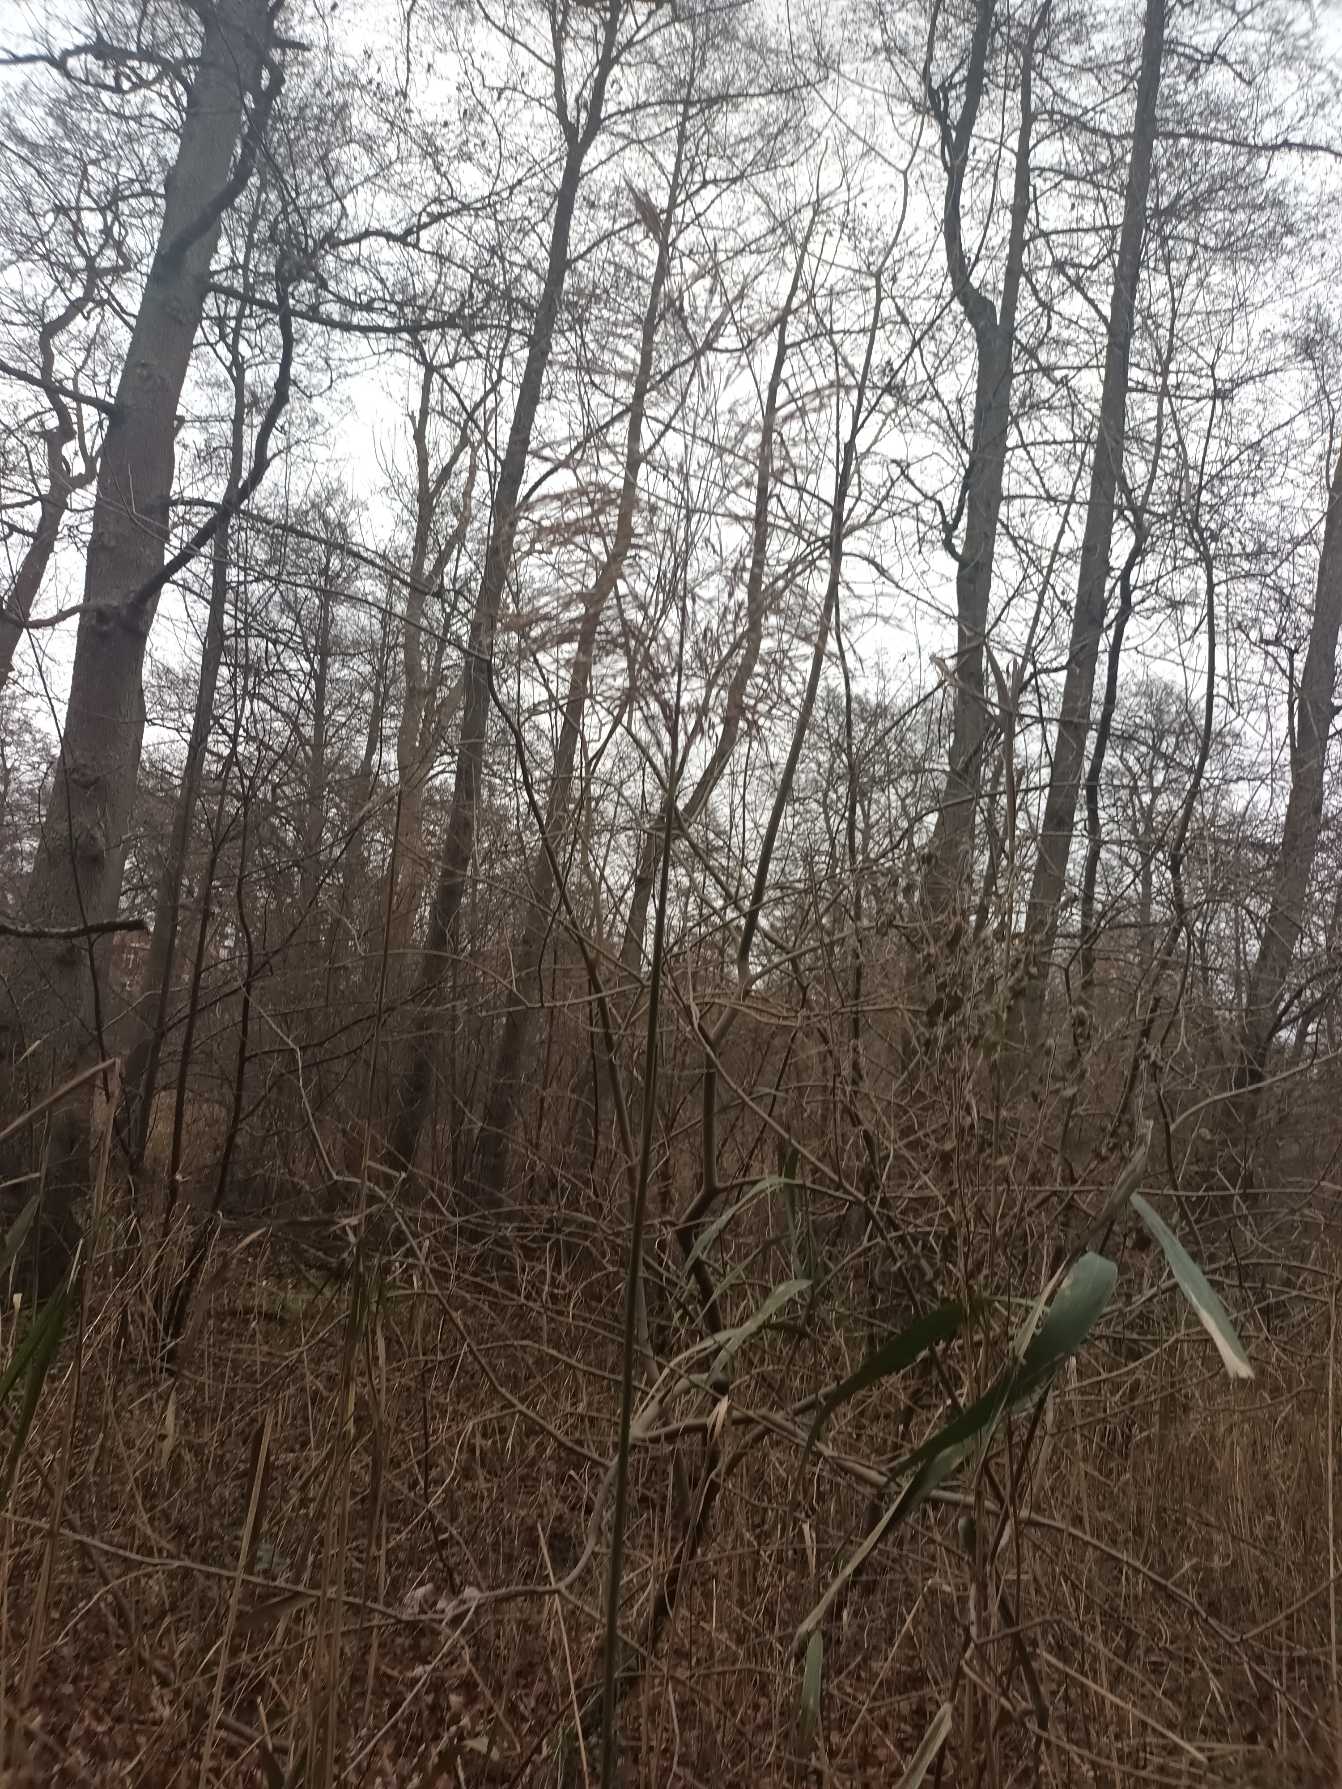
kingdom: Plantae
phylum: Tracheophyta
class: Liliopsida
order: Poales
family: Poaceae
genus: Phragmites
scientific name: Phragmites australis
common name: Tagrør
